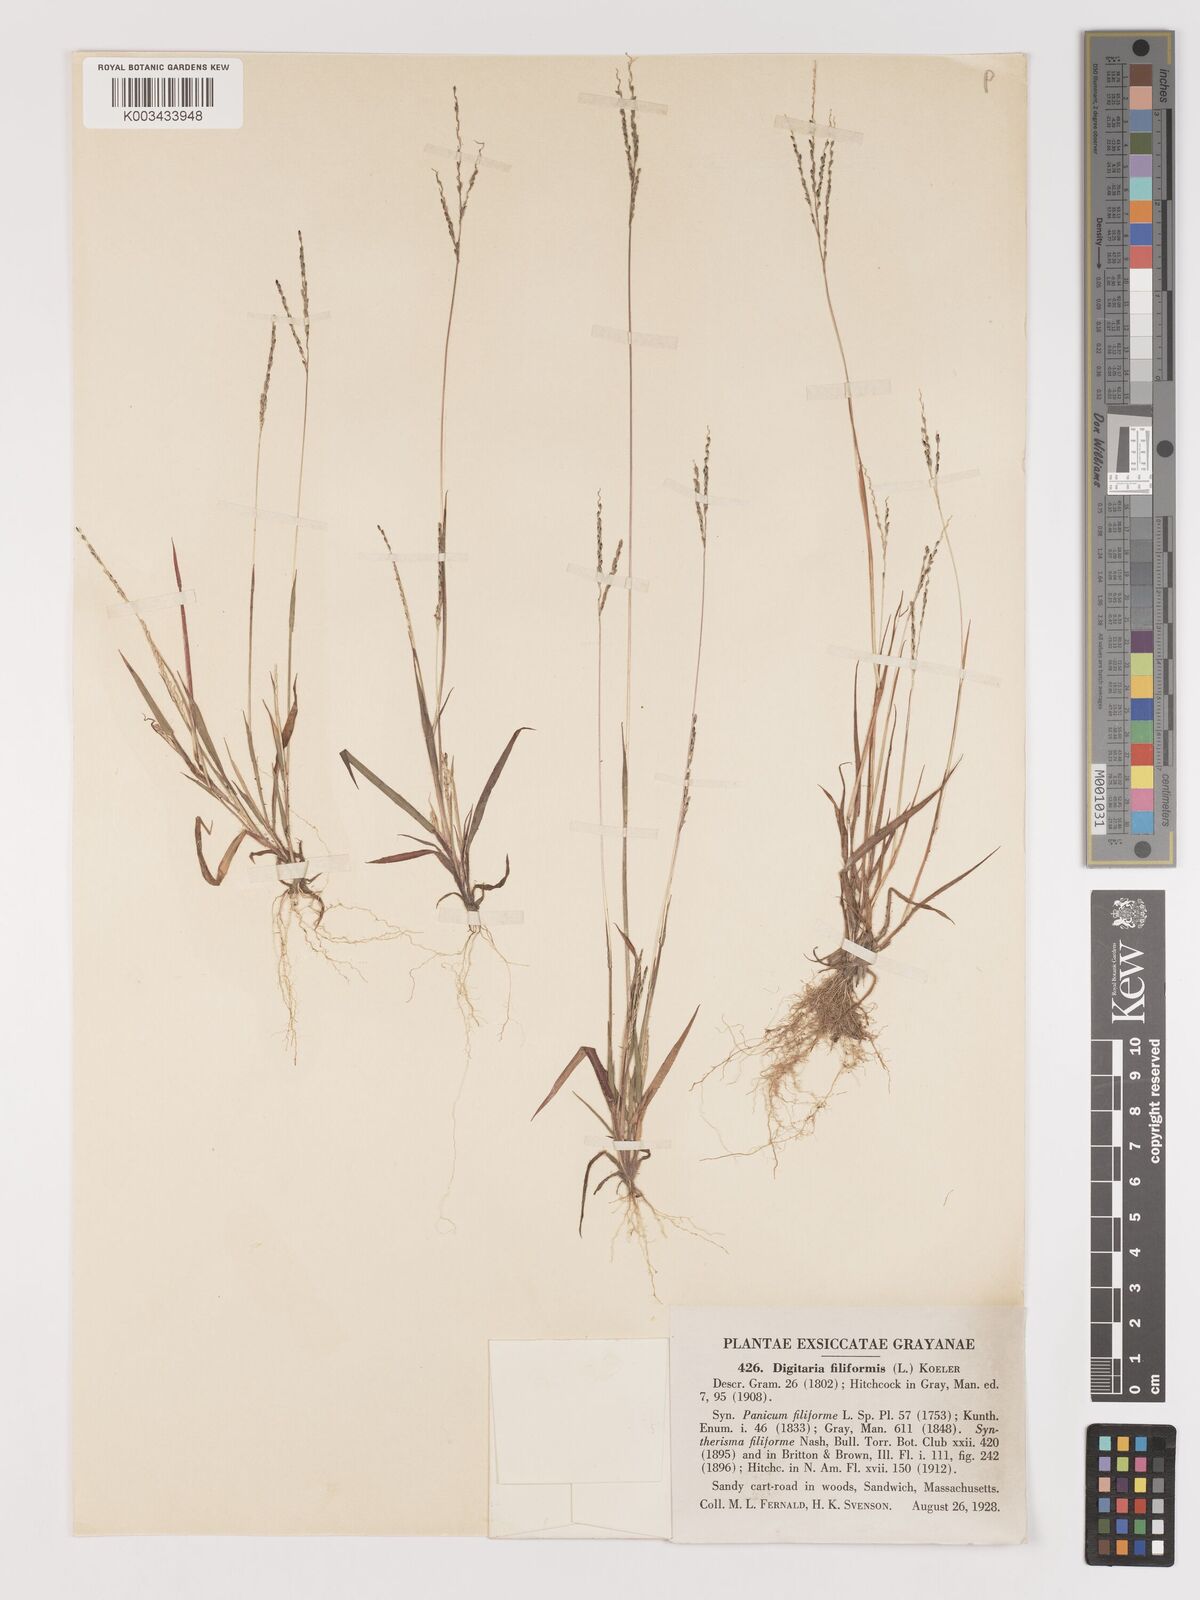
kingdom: Plantae
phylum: Tracheophyta
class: Liliopsida
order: Poales
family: Poaceae
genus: Digitaria
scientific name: Digitaria filiformis
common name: Slender crabgrass
